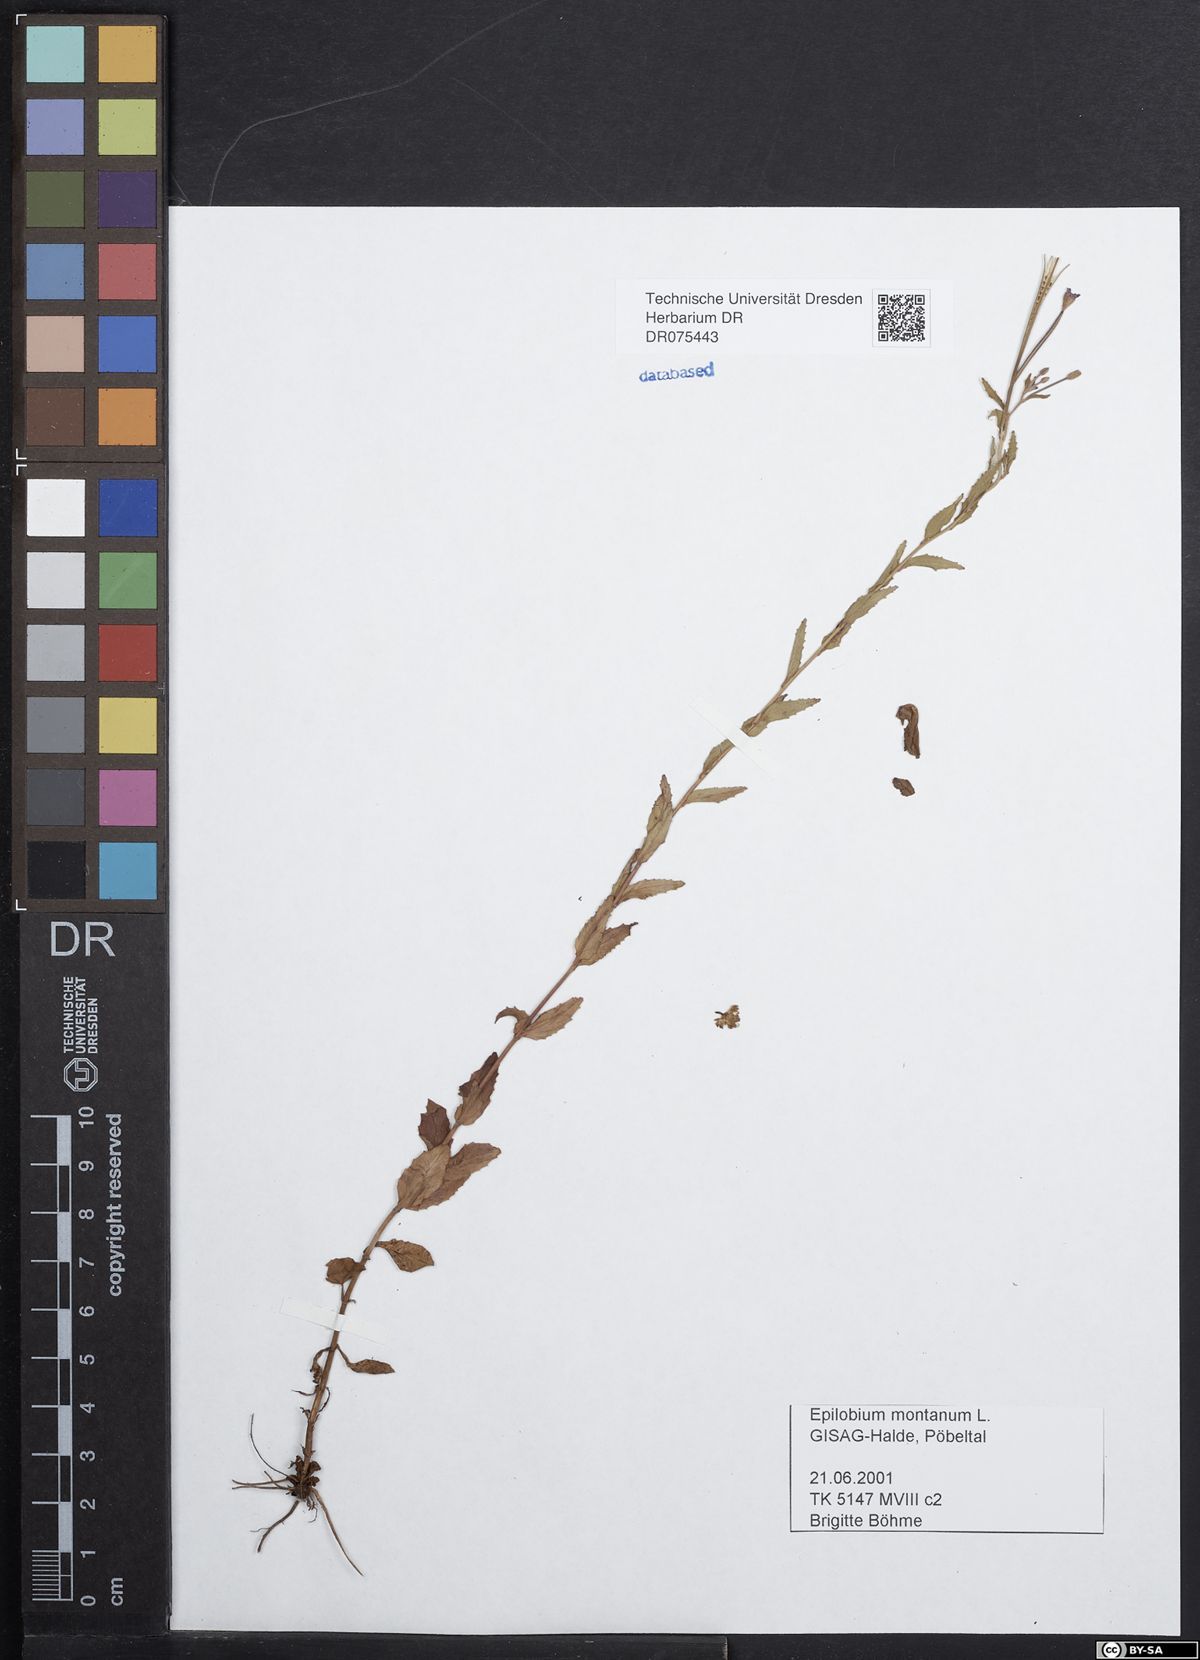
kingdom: Plantae
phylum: Tracheophyta
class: Magnoliopsida
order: Myrtales
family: Onagraceae
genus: Epilobium
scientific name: Epilobium montanum
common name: Broad-leaved willowherb
